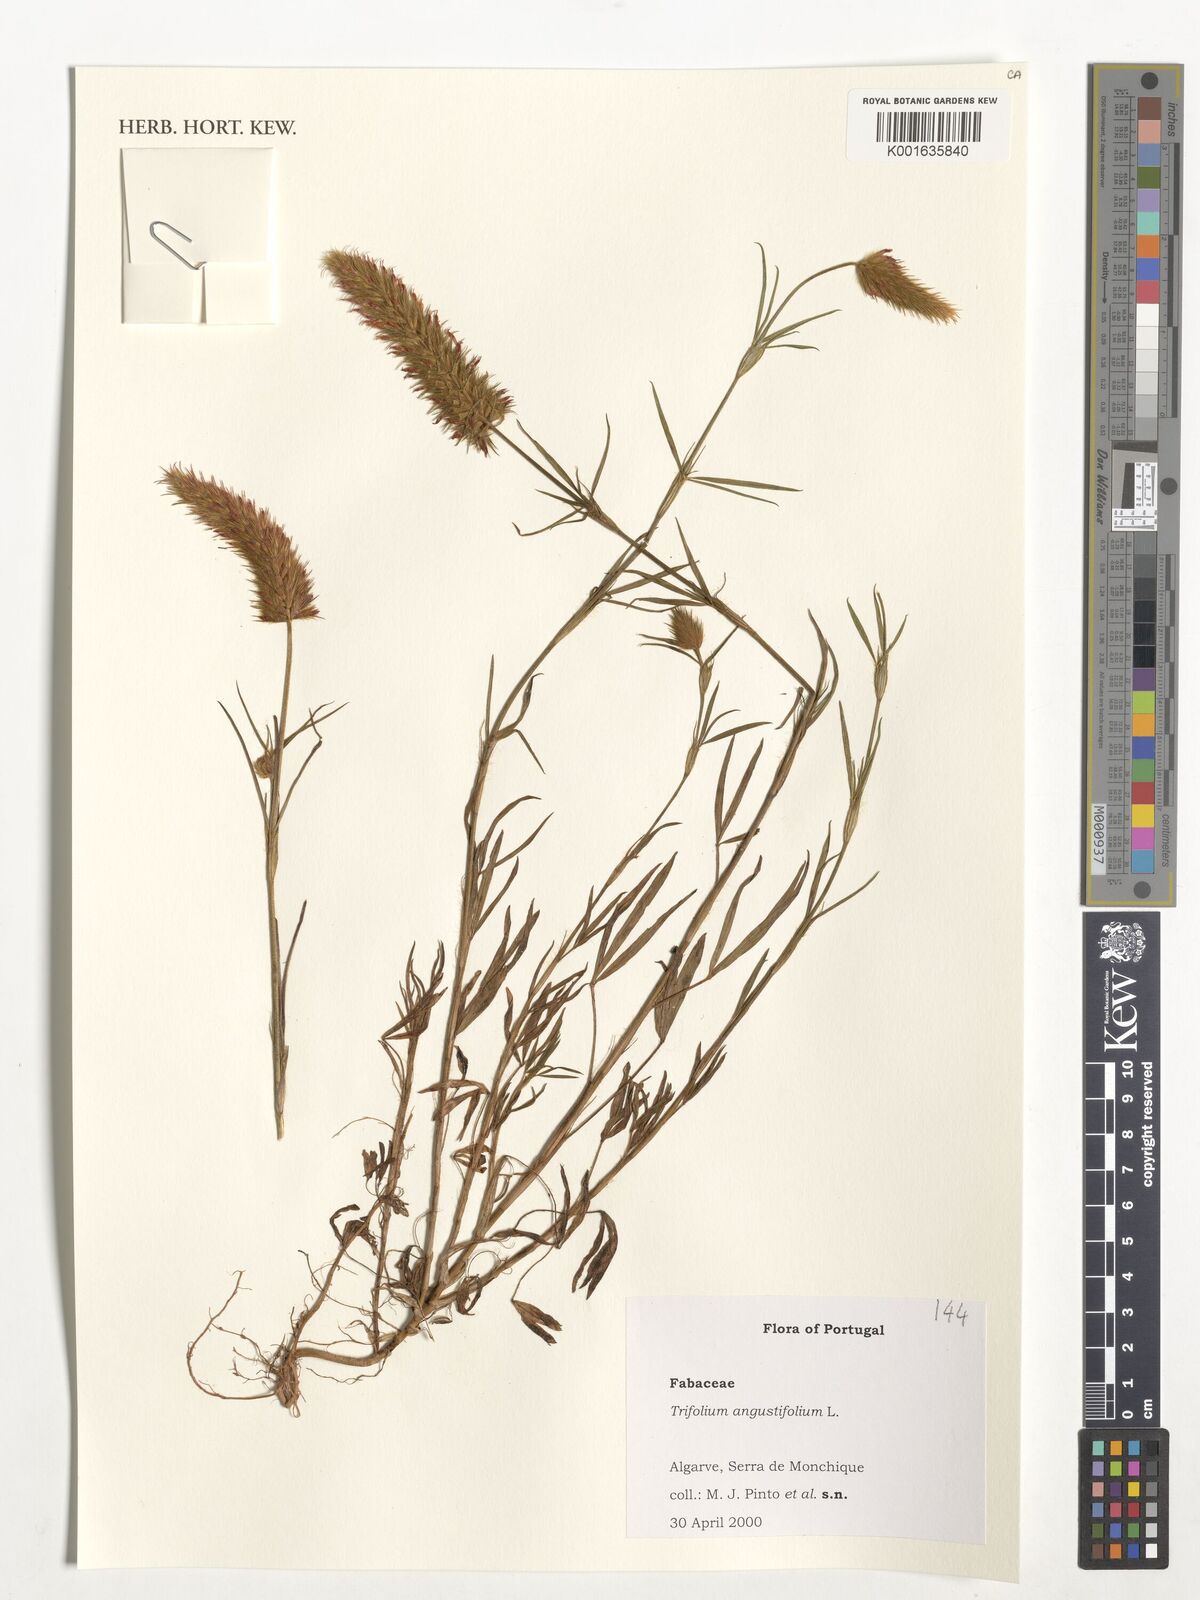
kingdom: Plantae
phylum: Tracheophyta
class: Magnoliopsida
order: Fabales
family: Fabaceae
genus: Trifolium
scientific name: Trifolium angustifolium
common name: Narrow clover
